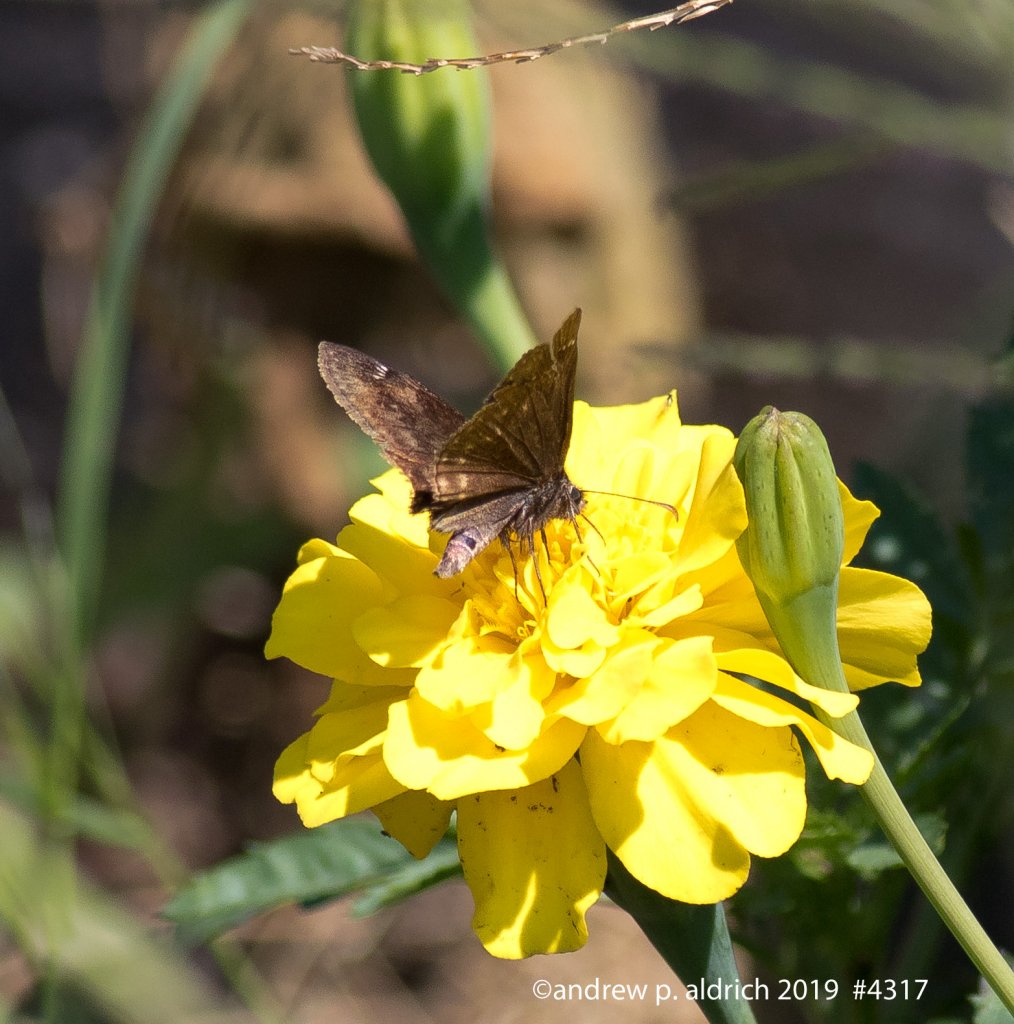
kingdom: Animalia
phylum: Arthropoda
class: Insecta
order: Lepidoptera
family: Hesperiidae
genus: Gesta
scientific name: Gesta
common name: Wild Indigo Duskywing
